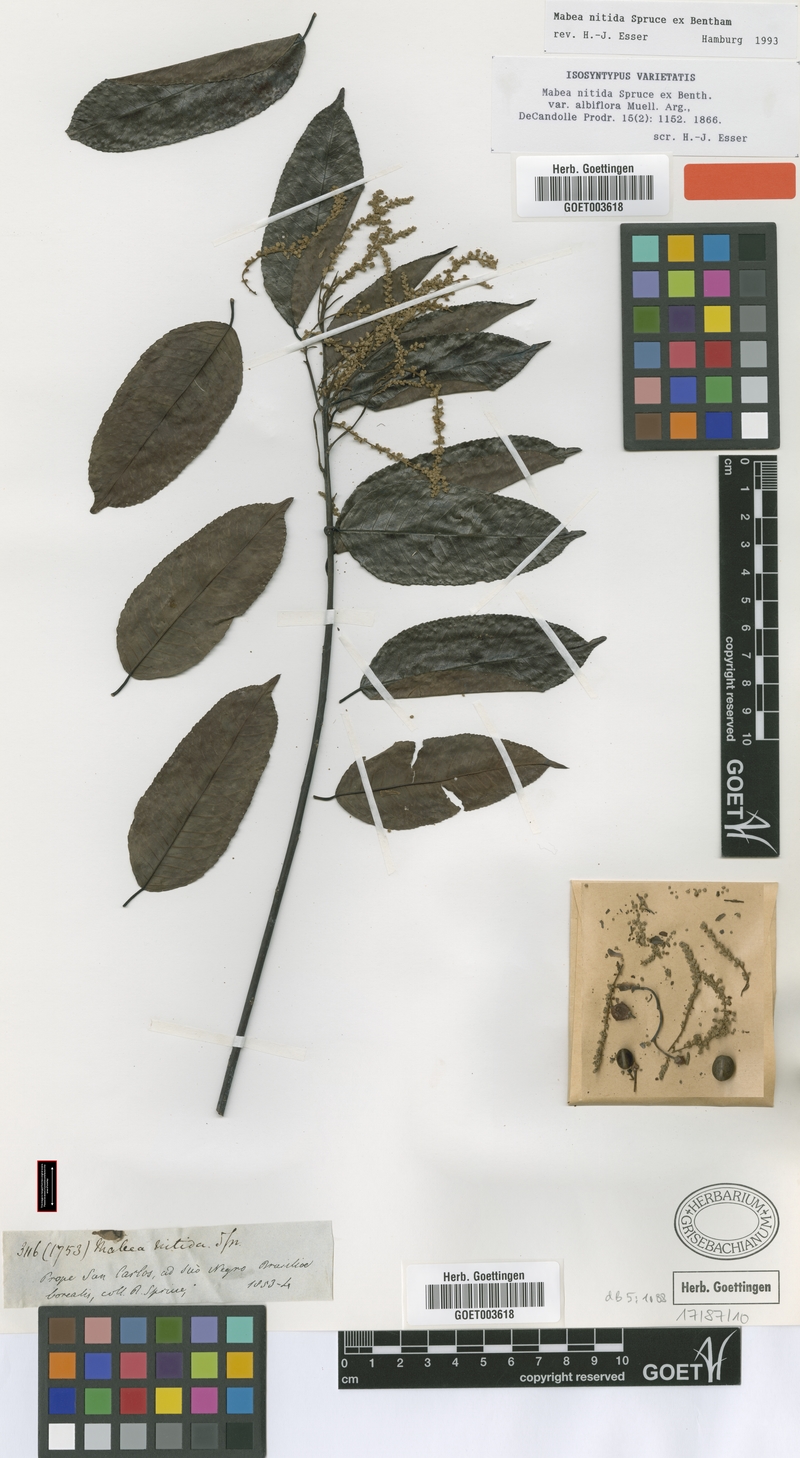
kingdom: Plantae
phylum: Tracheophyta
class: Magnoliopsida
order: Malpighiales
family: Euphorbiaceae
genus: Mabea
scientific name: Mabea nitida
